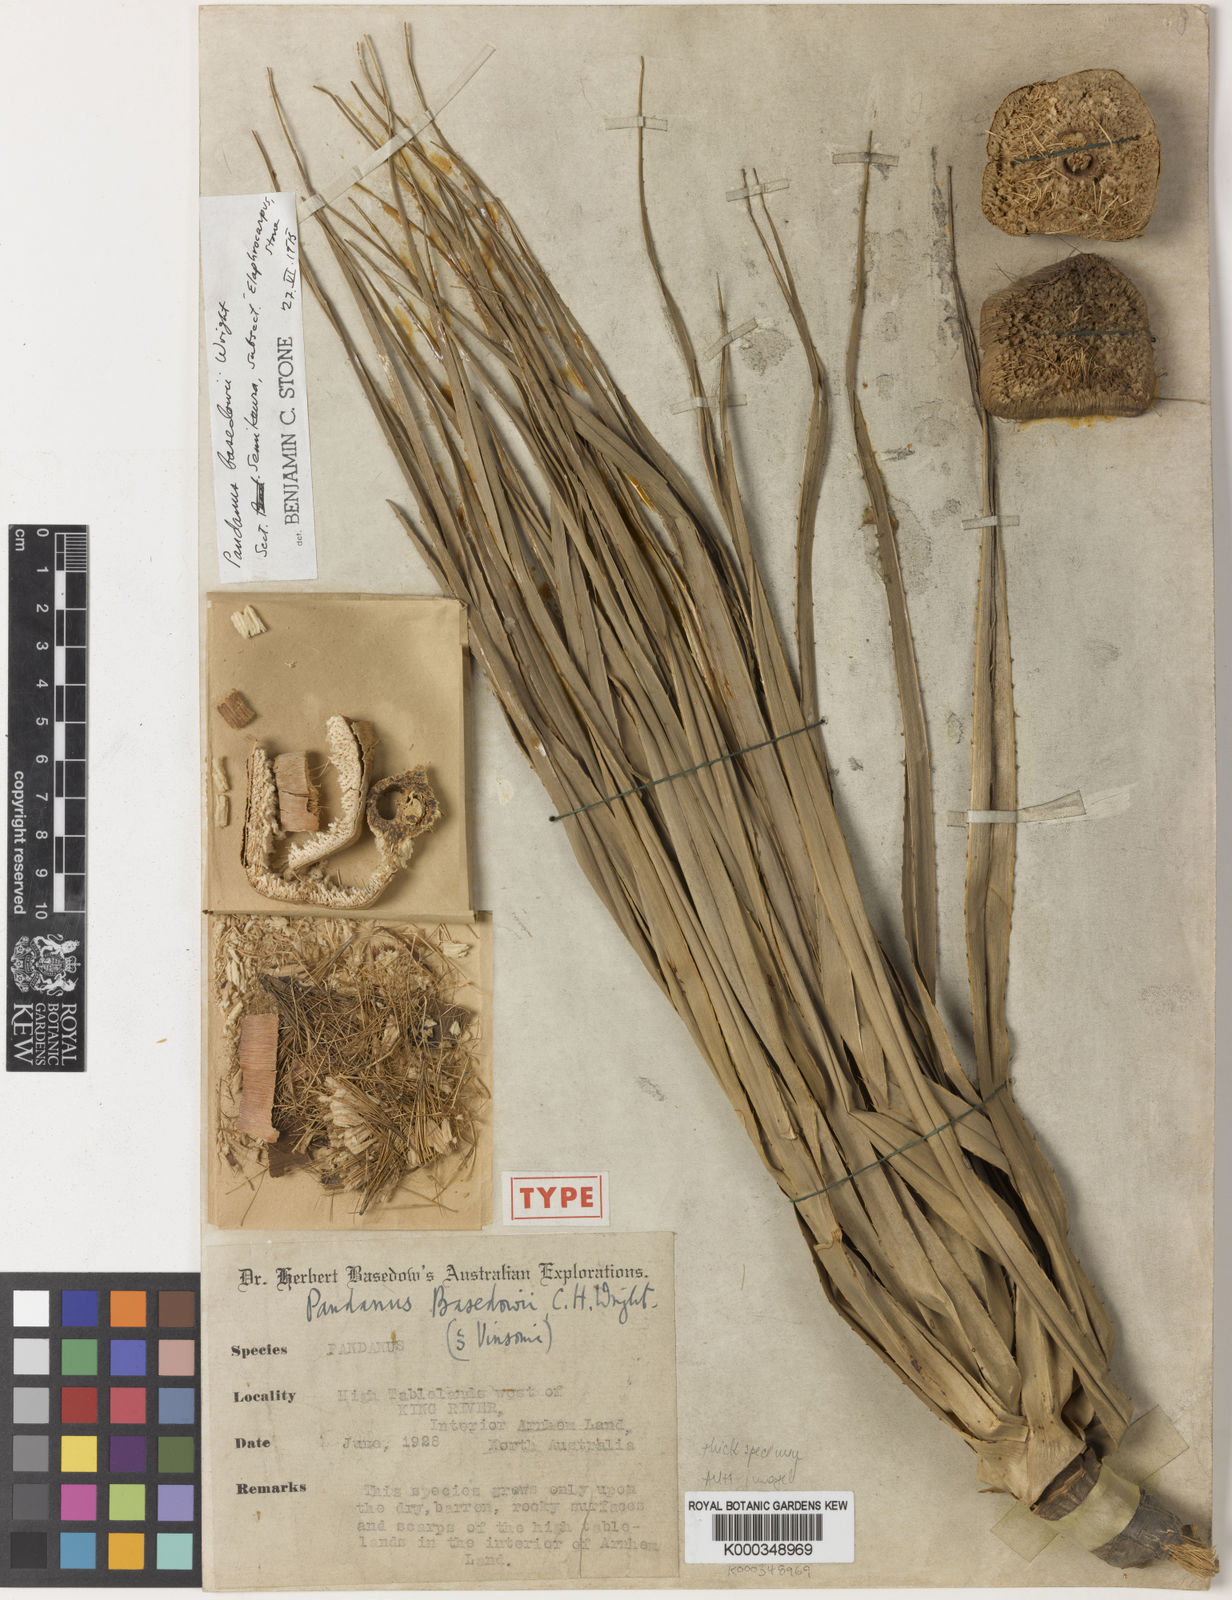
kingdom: Plantae
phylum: Tracheophyta
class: Liliopsida
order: Pandanales
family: Pandanaceae
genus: Pandanus
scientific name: Pandanus
